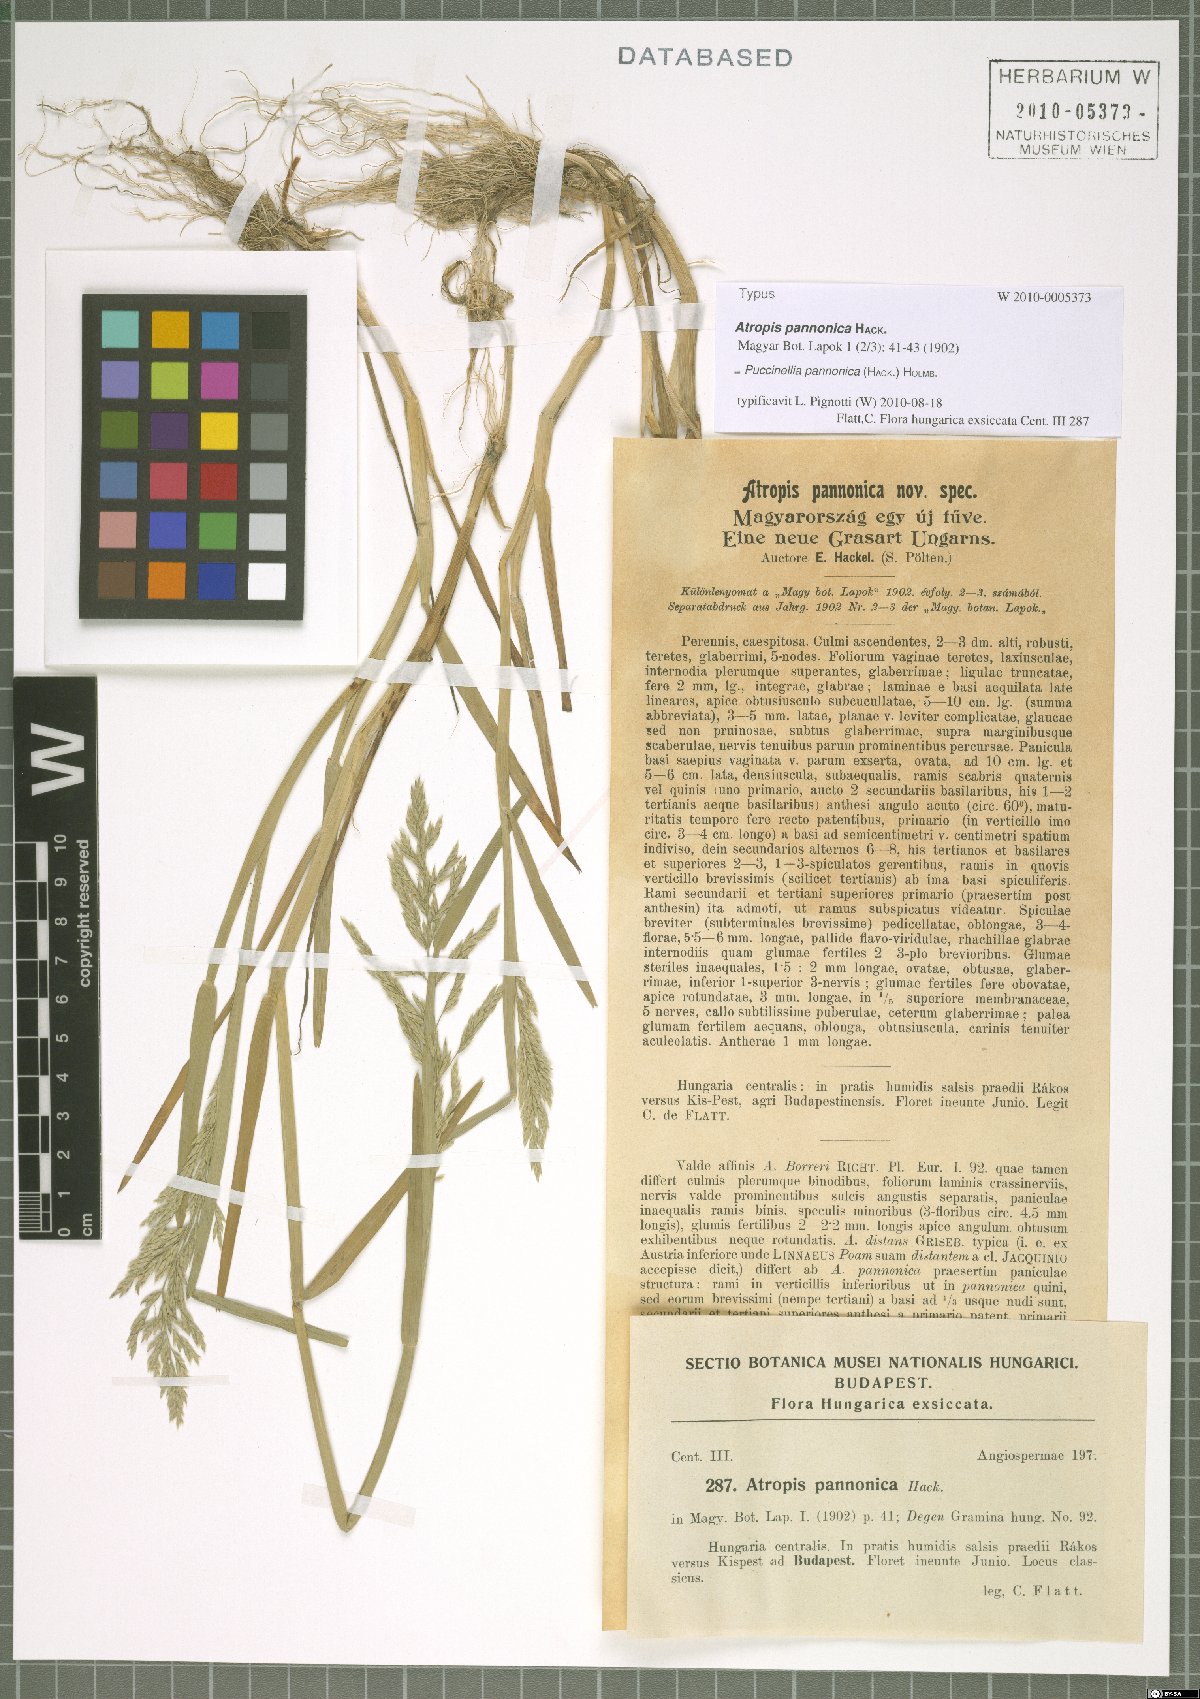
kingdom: Plantae
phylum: Tracheophyta
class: Liliopsida
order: Poales
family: Poaceae
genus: Puccinellia
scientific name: Puccinellia pannonica
